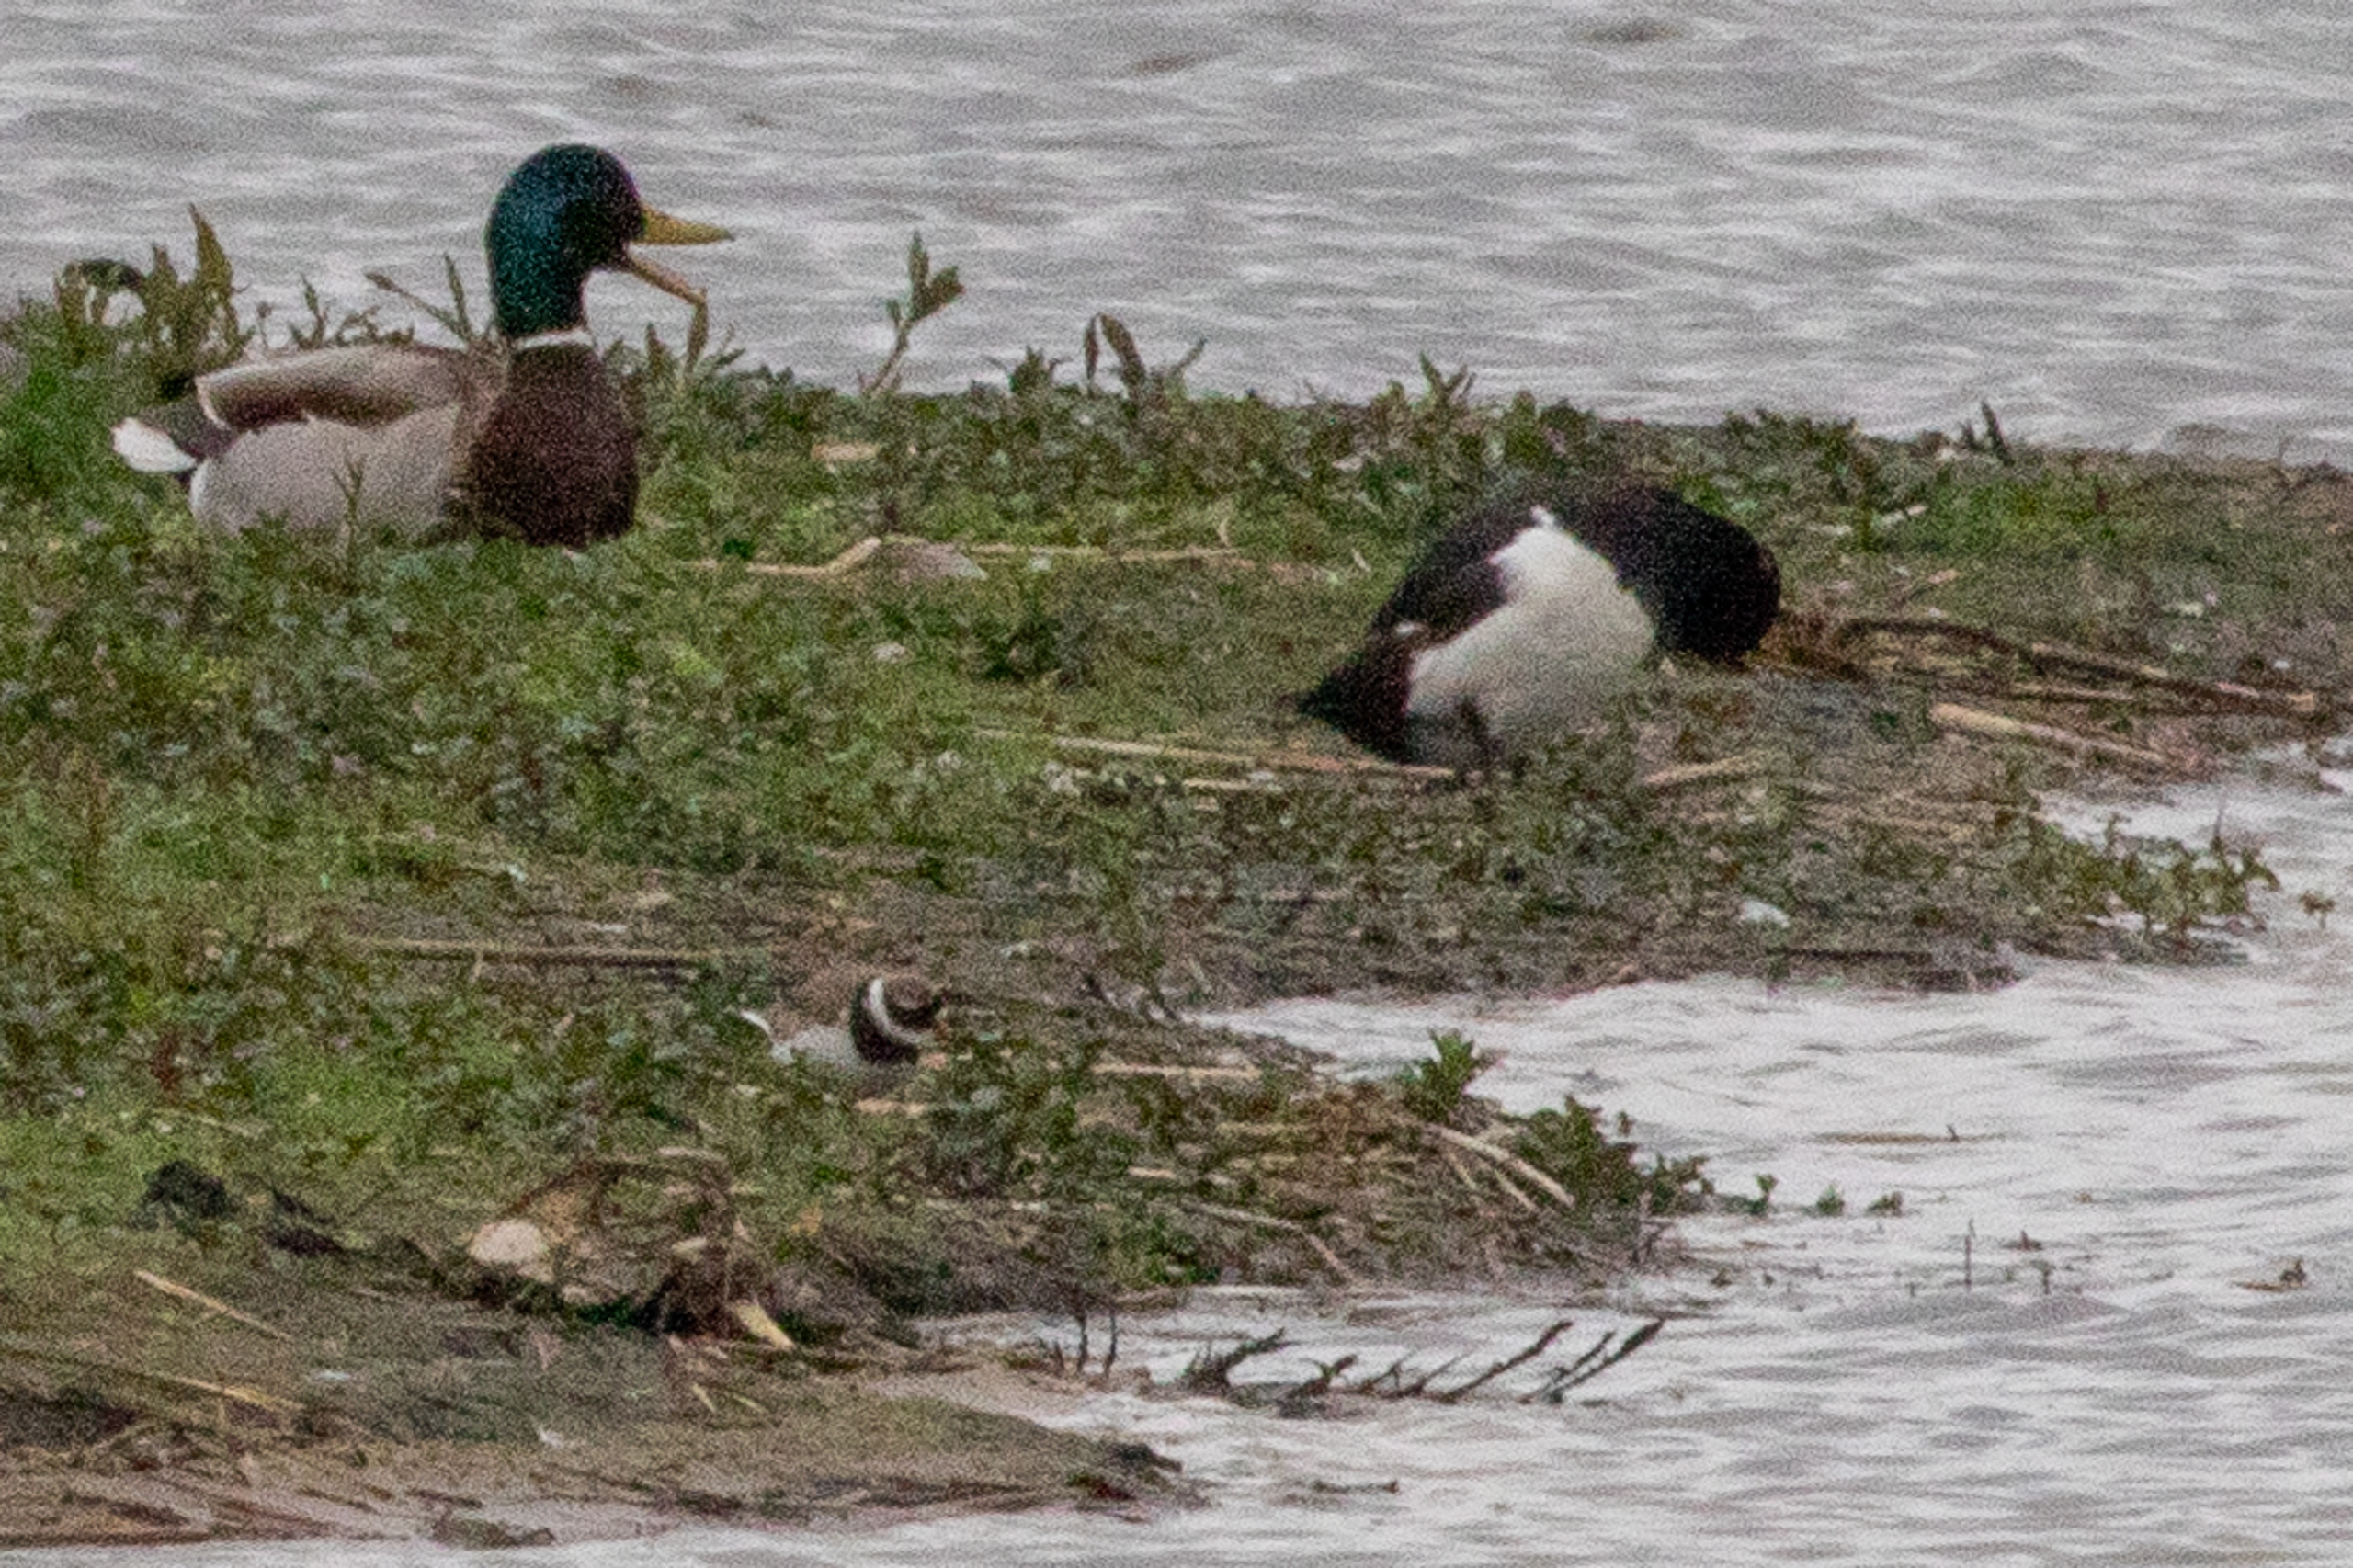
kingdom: Animalia
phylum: Chordata
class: Aves
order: Charadriiformes
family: Charadriidae
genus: Charadrius
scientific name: Charadrius hiaticula
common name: Stor præstekrave
